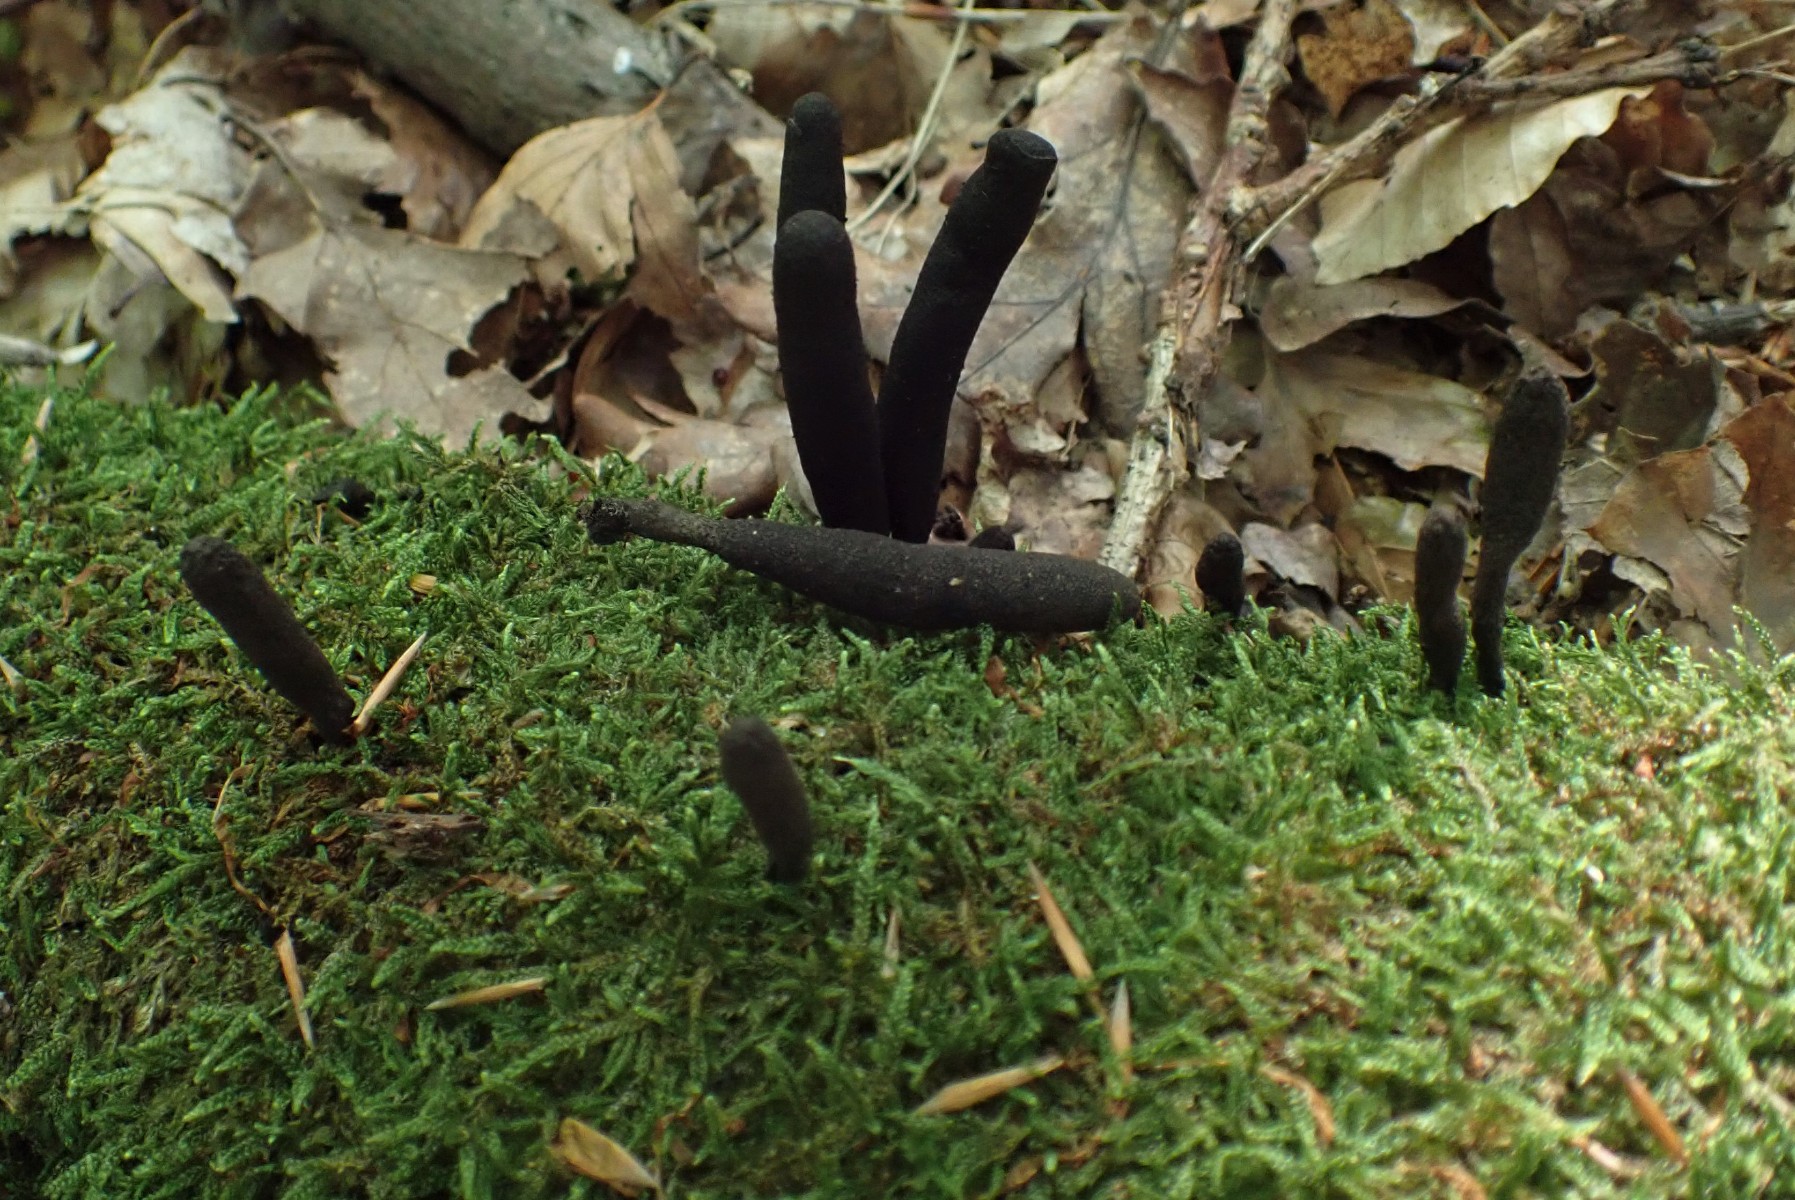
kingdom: Fungi
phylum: Ascomycota
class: Sordariomycetes
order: Xylariales
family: Xylariaceae
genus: Xylaria
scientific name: Xylaria longipes
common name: slank stødsvamp
